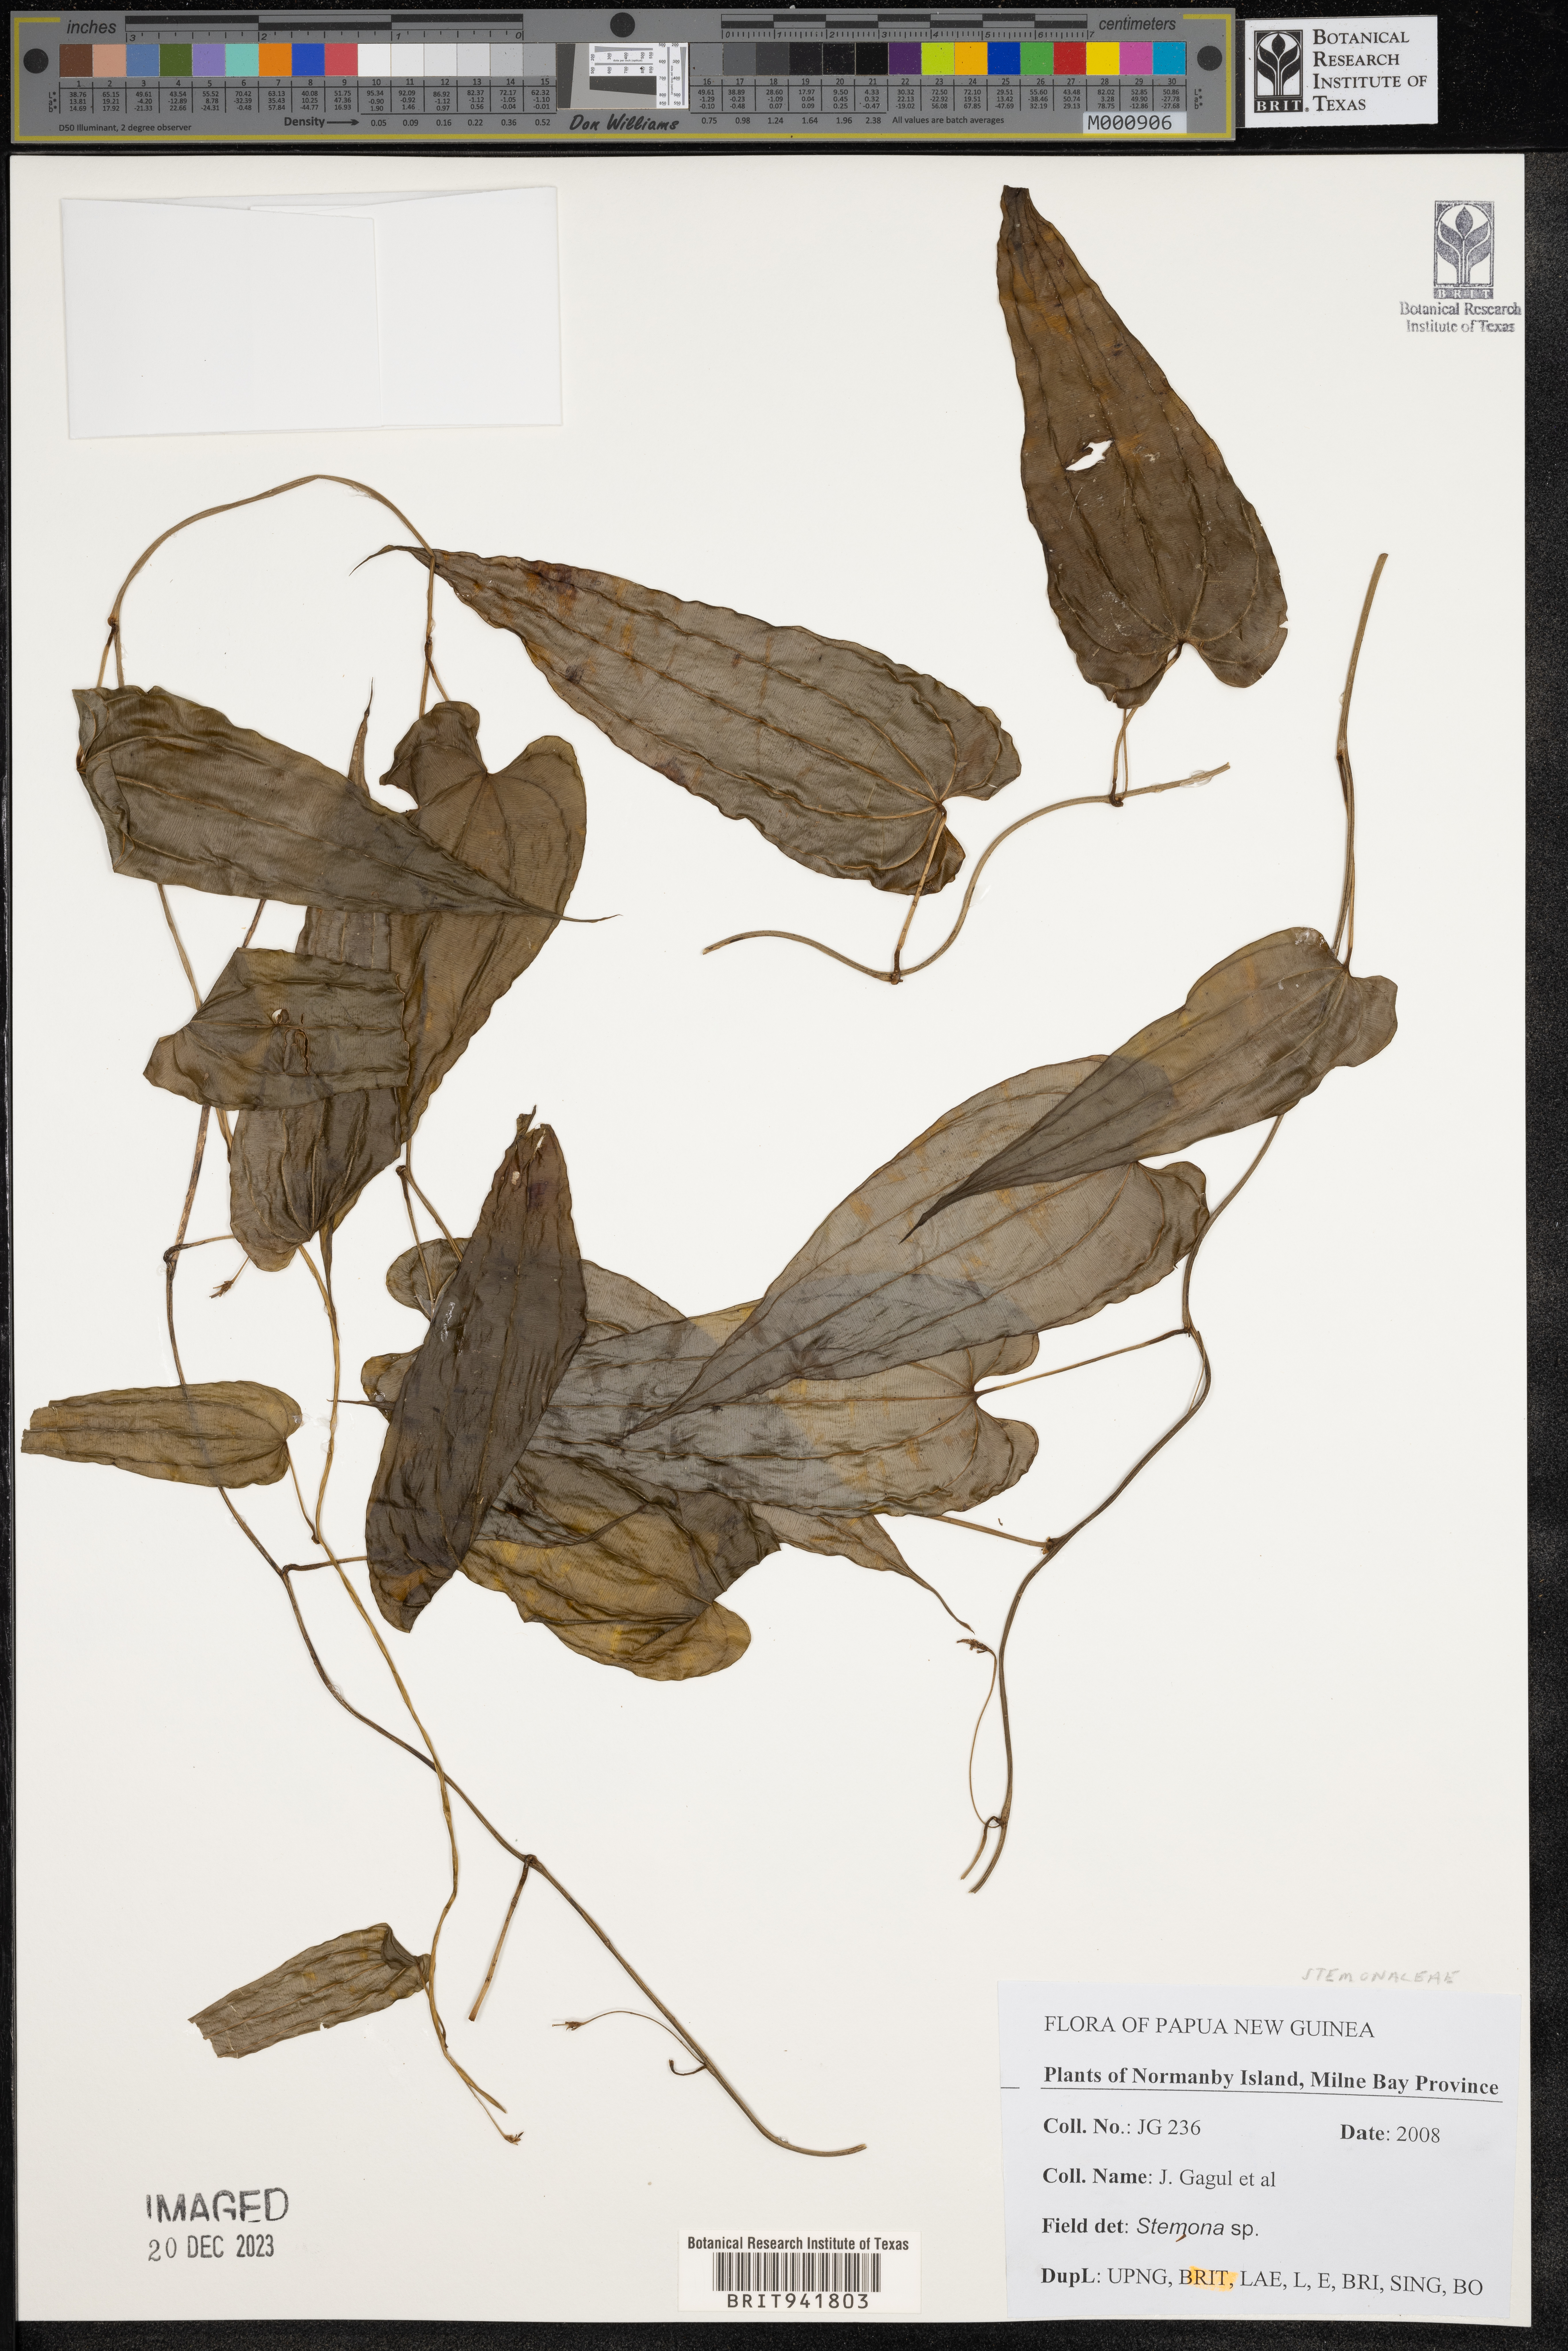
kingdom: Plantae
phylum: Tracheophyta
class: Liliopsida
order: Pandanales
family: Stemonaceae
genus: Stemona
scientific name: Stemona
